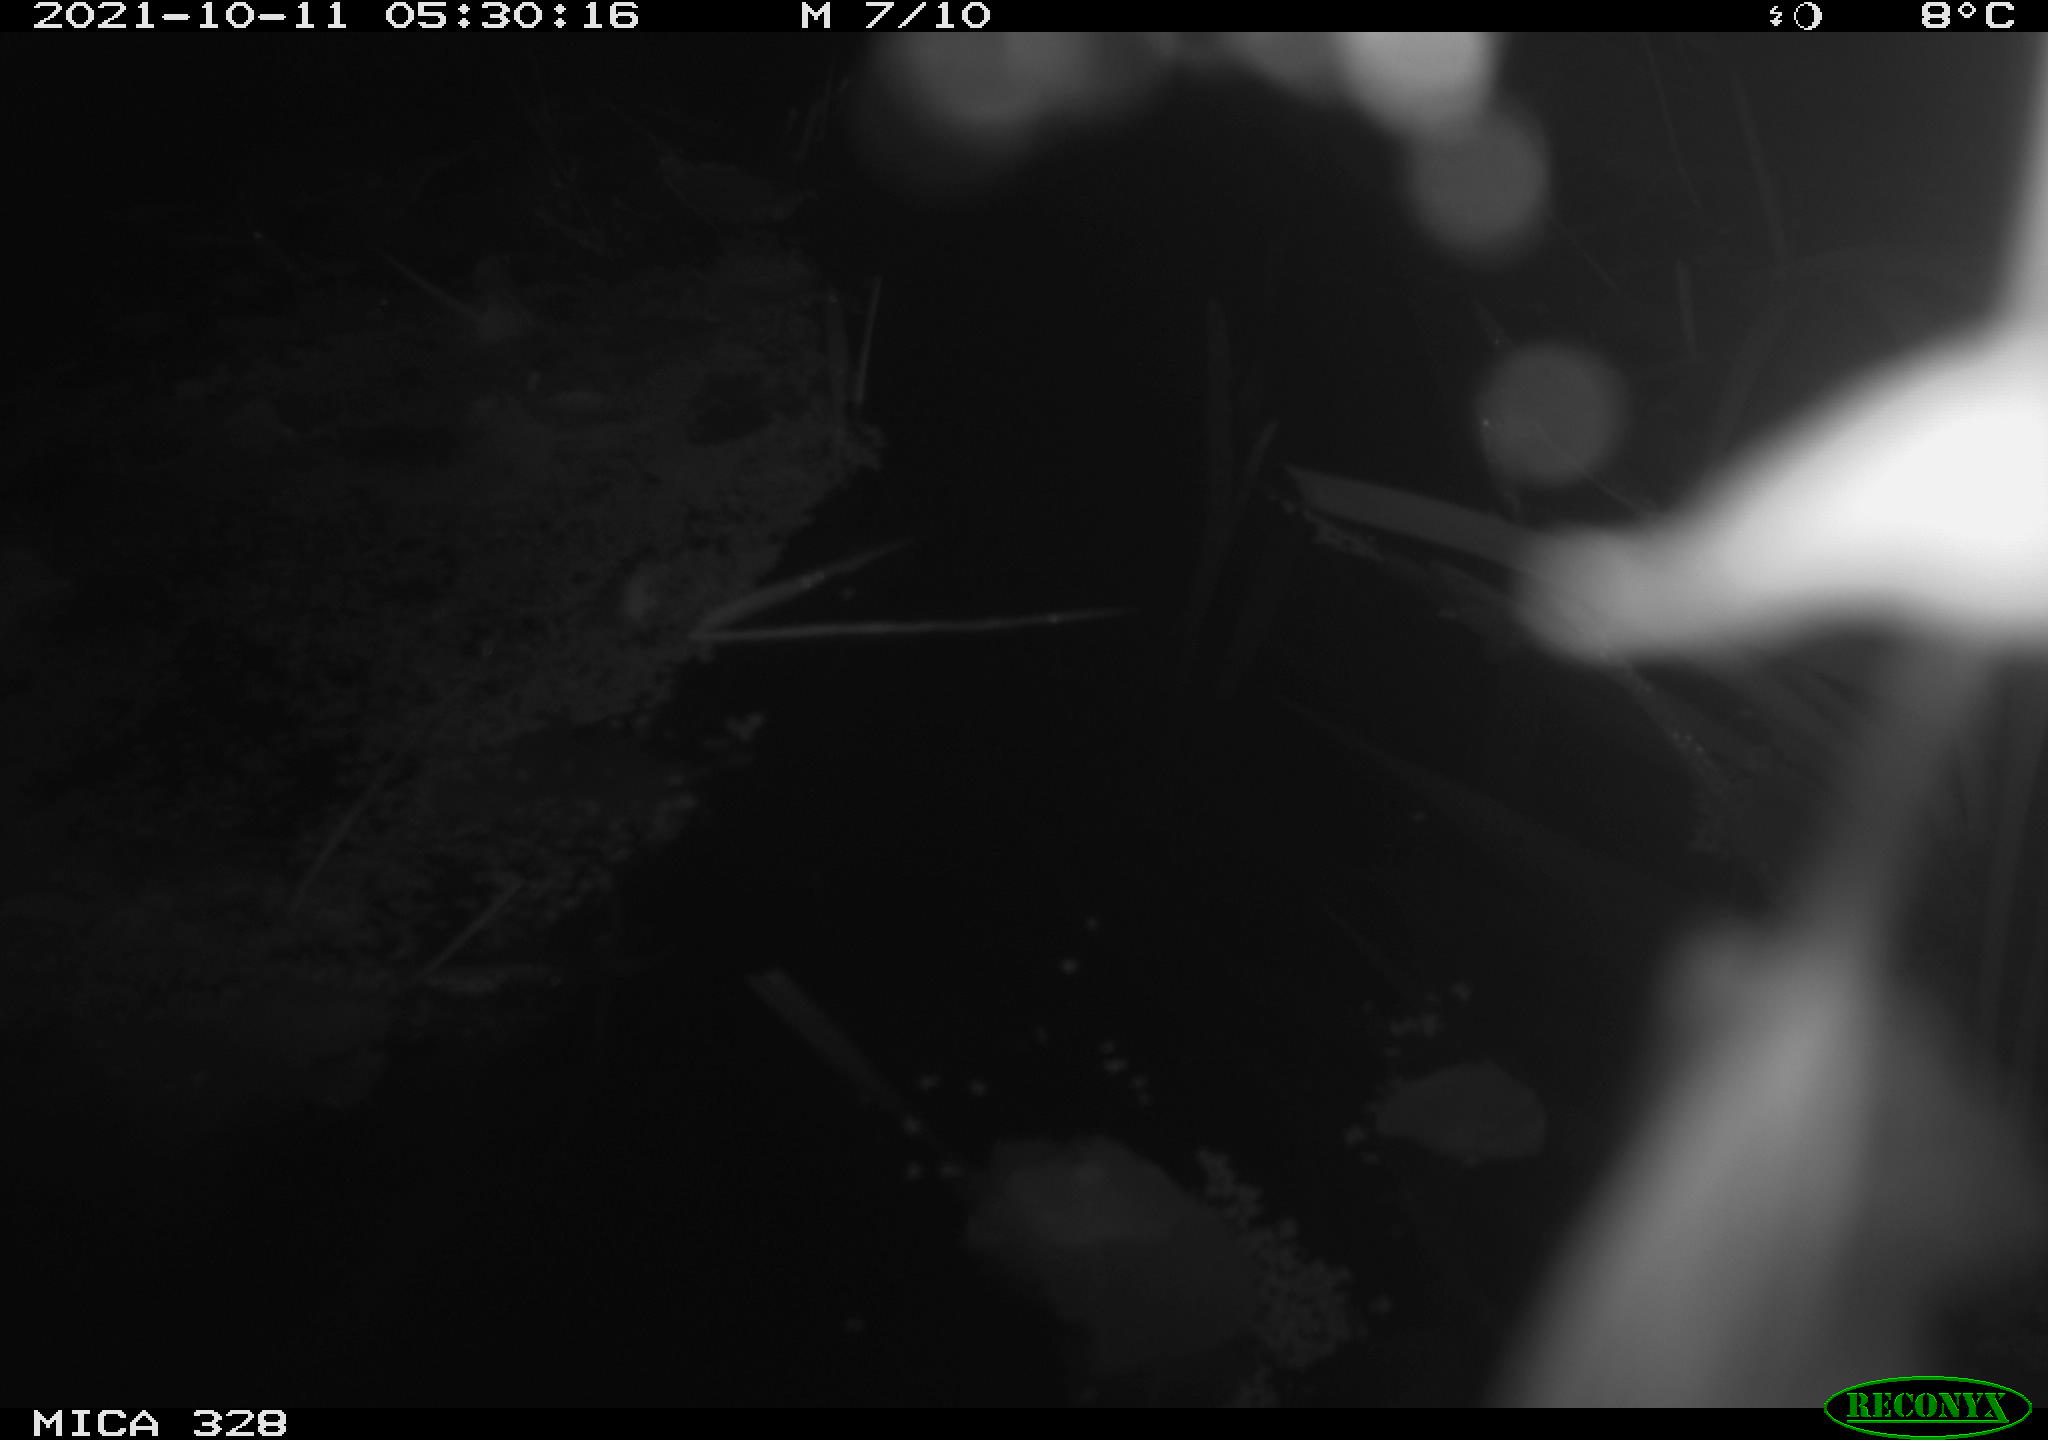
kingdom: Animalia
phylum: Chordata
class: Mammalia
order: Rodentia
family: Cricetidae
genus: Ondatra
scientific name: Ondatra zibethicus
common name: Muskrat
